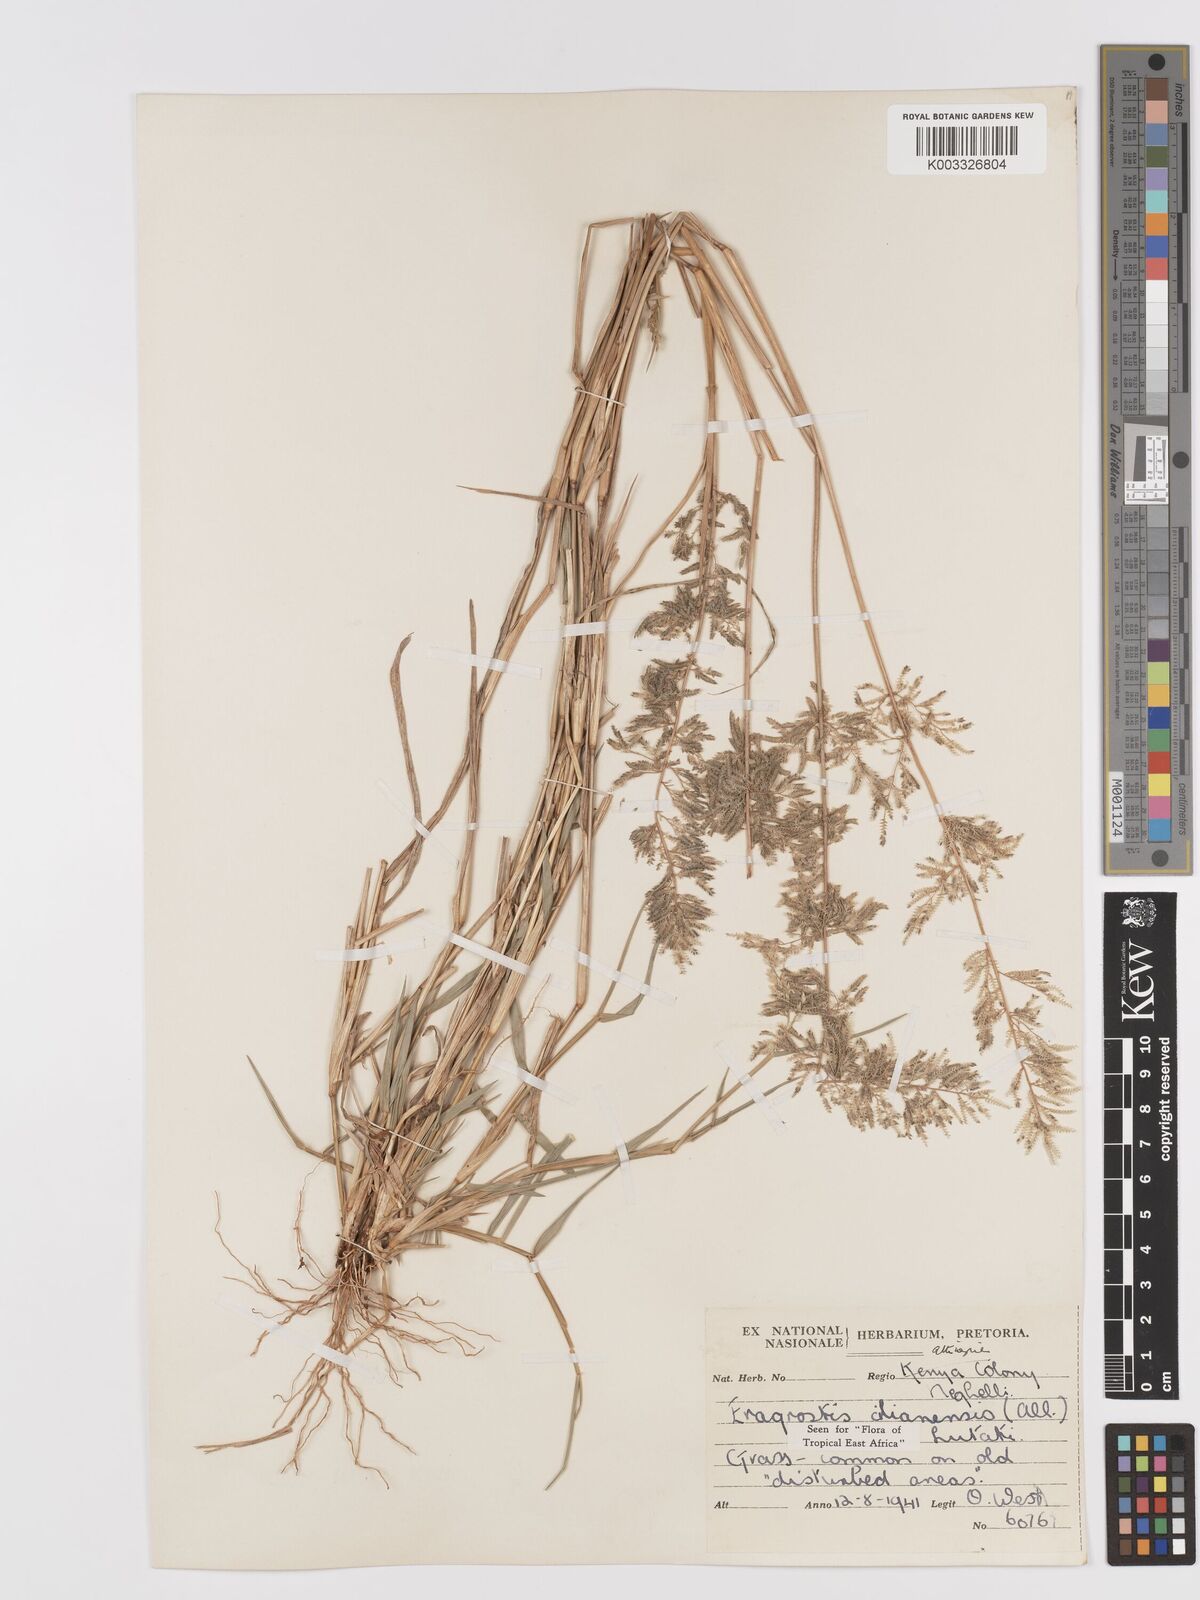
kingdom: Plantae
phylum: Tracheophyta
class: Liliopsida
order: Poales
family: Poaceae
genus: Eragrostis
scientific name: Eragrostis cilianensis
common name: Stinkgrass
